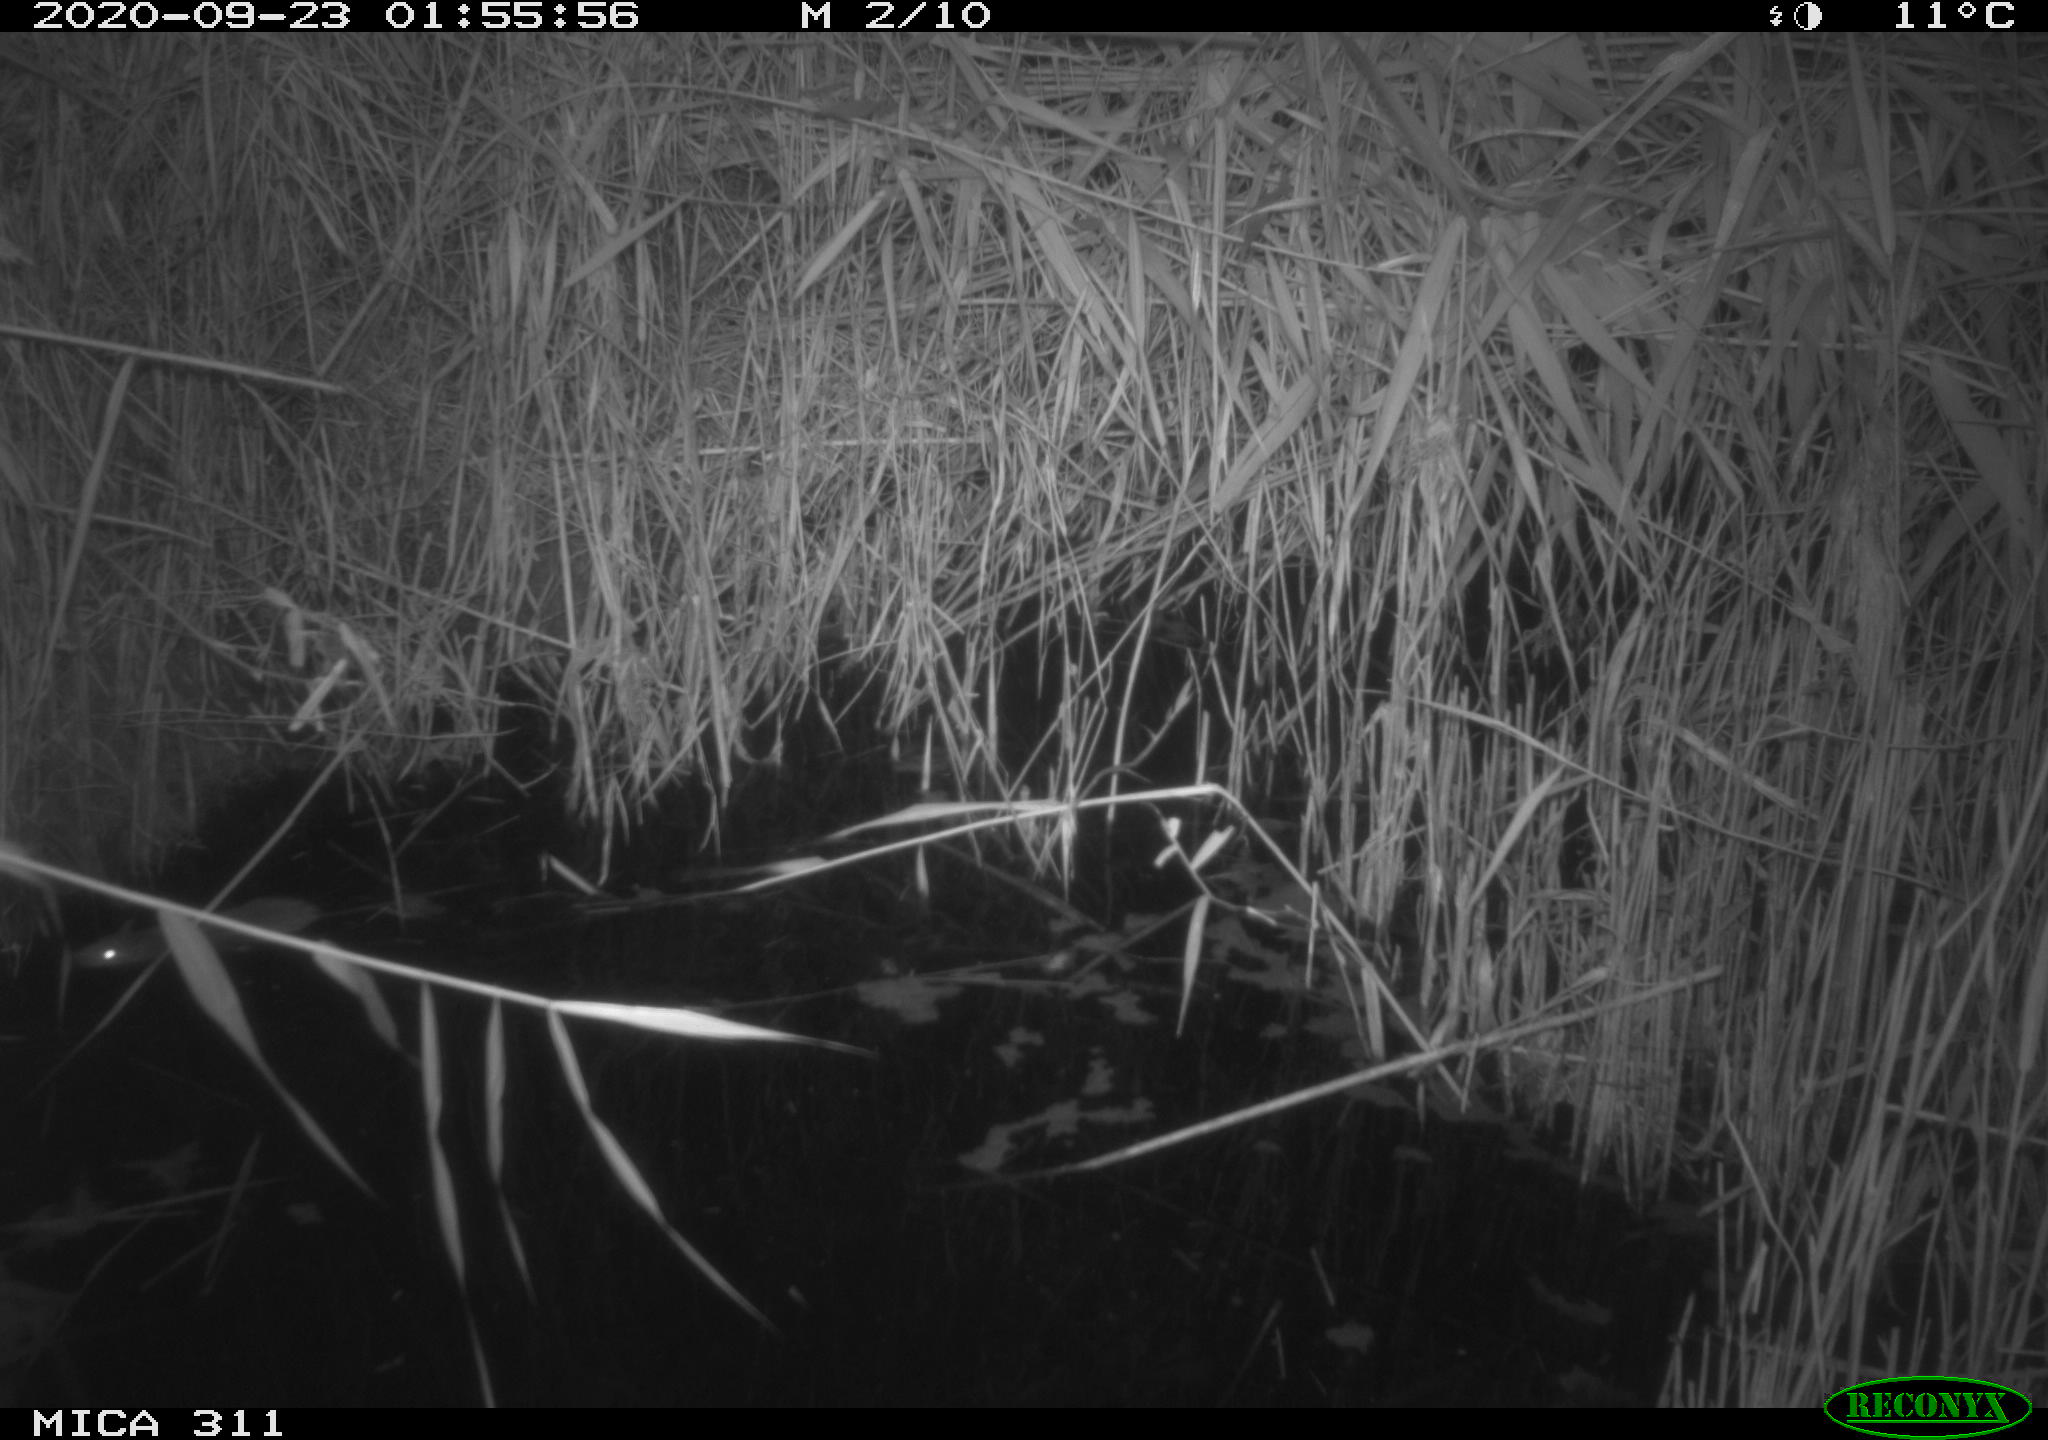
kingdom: Animalia
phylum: Chordata
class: Mammalia
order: Rodentia
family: Muridae
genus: Rattus
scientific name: Rattus norvegicus
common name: Brown rat
